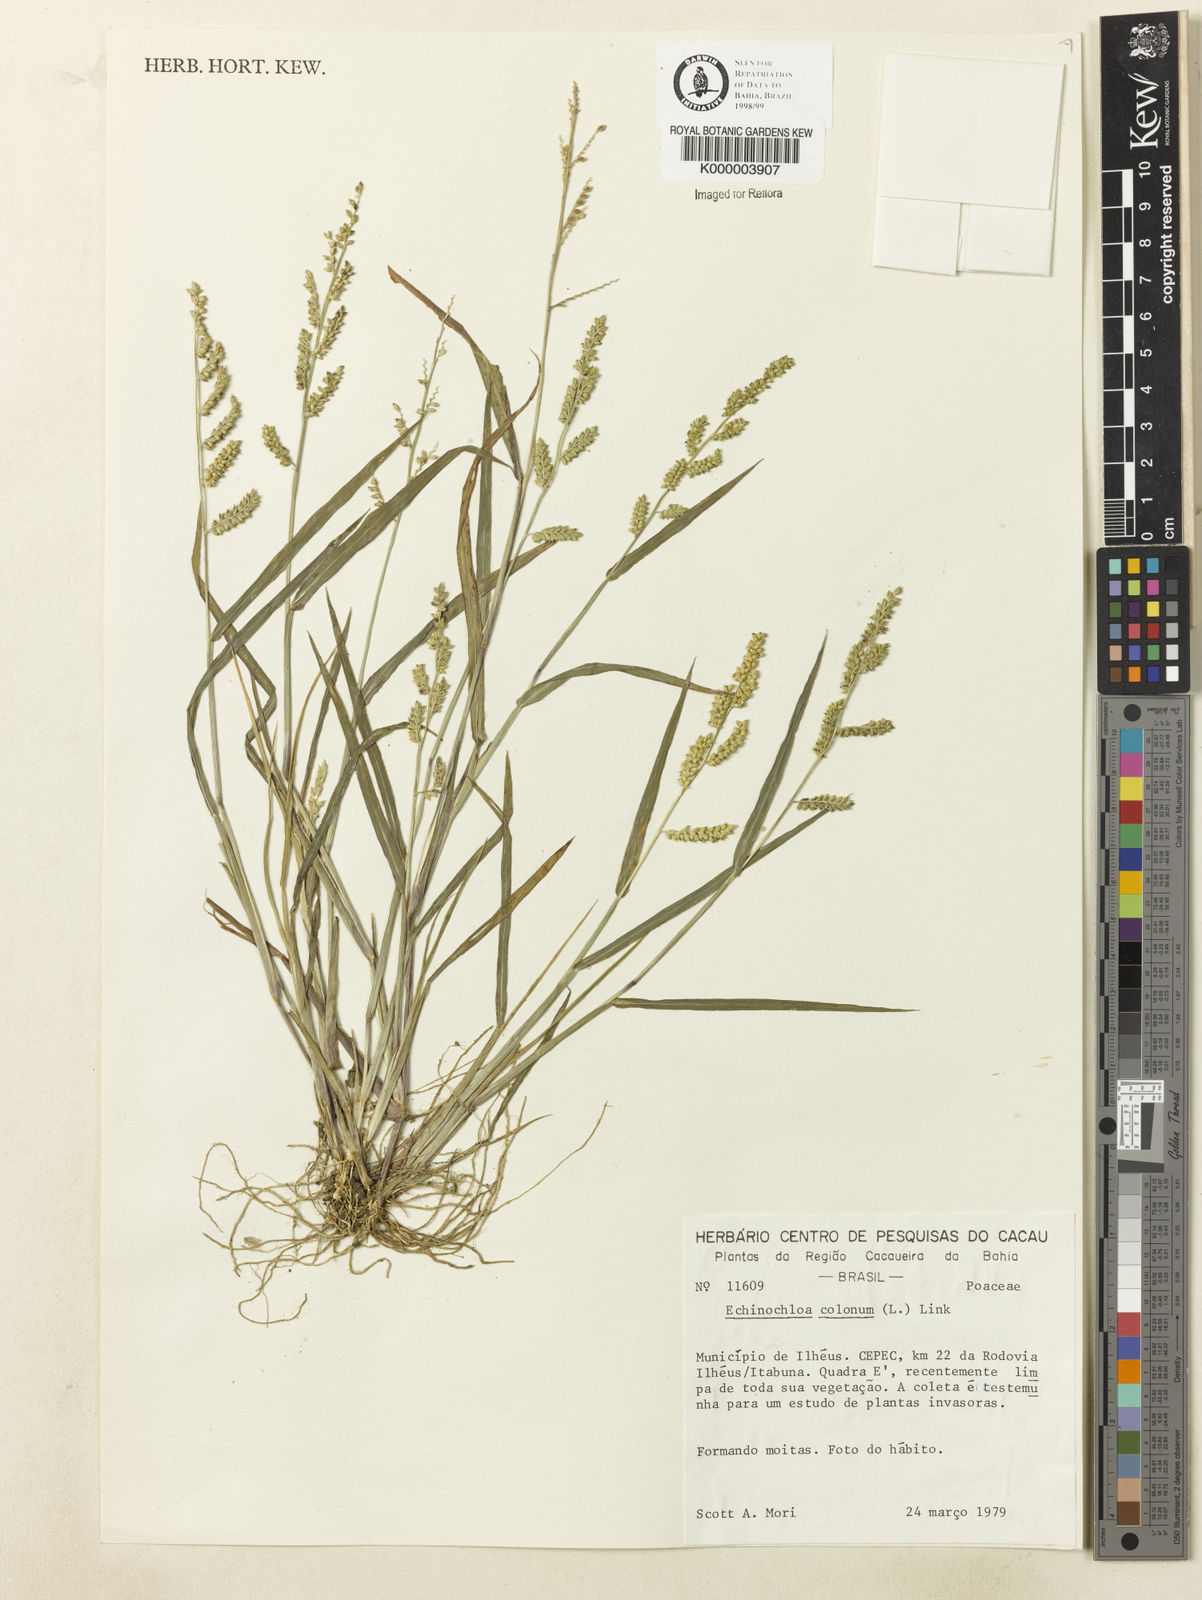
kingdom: Plantae
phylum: Tracheophyta
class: Liliopsida
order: Poales
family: Poaceae
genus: Echinochloa
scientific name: Echinochloa colonum
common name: Jungle rice
